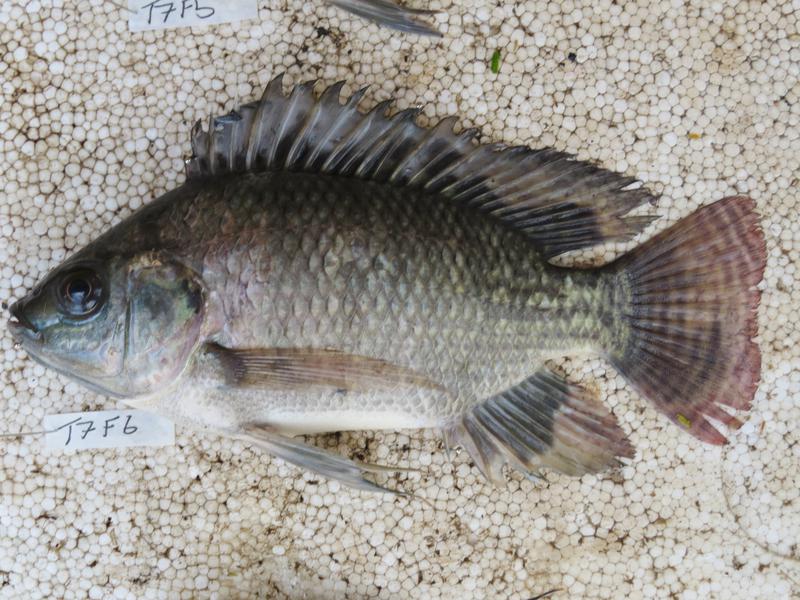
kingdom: Animalia
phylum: Chordata
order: Perciformes
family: Cichlidae
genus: Oreochromis
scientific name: Oreochromis niloticus
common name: Nile tilapia
